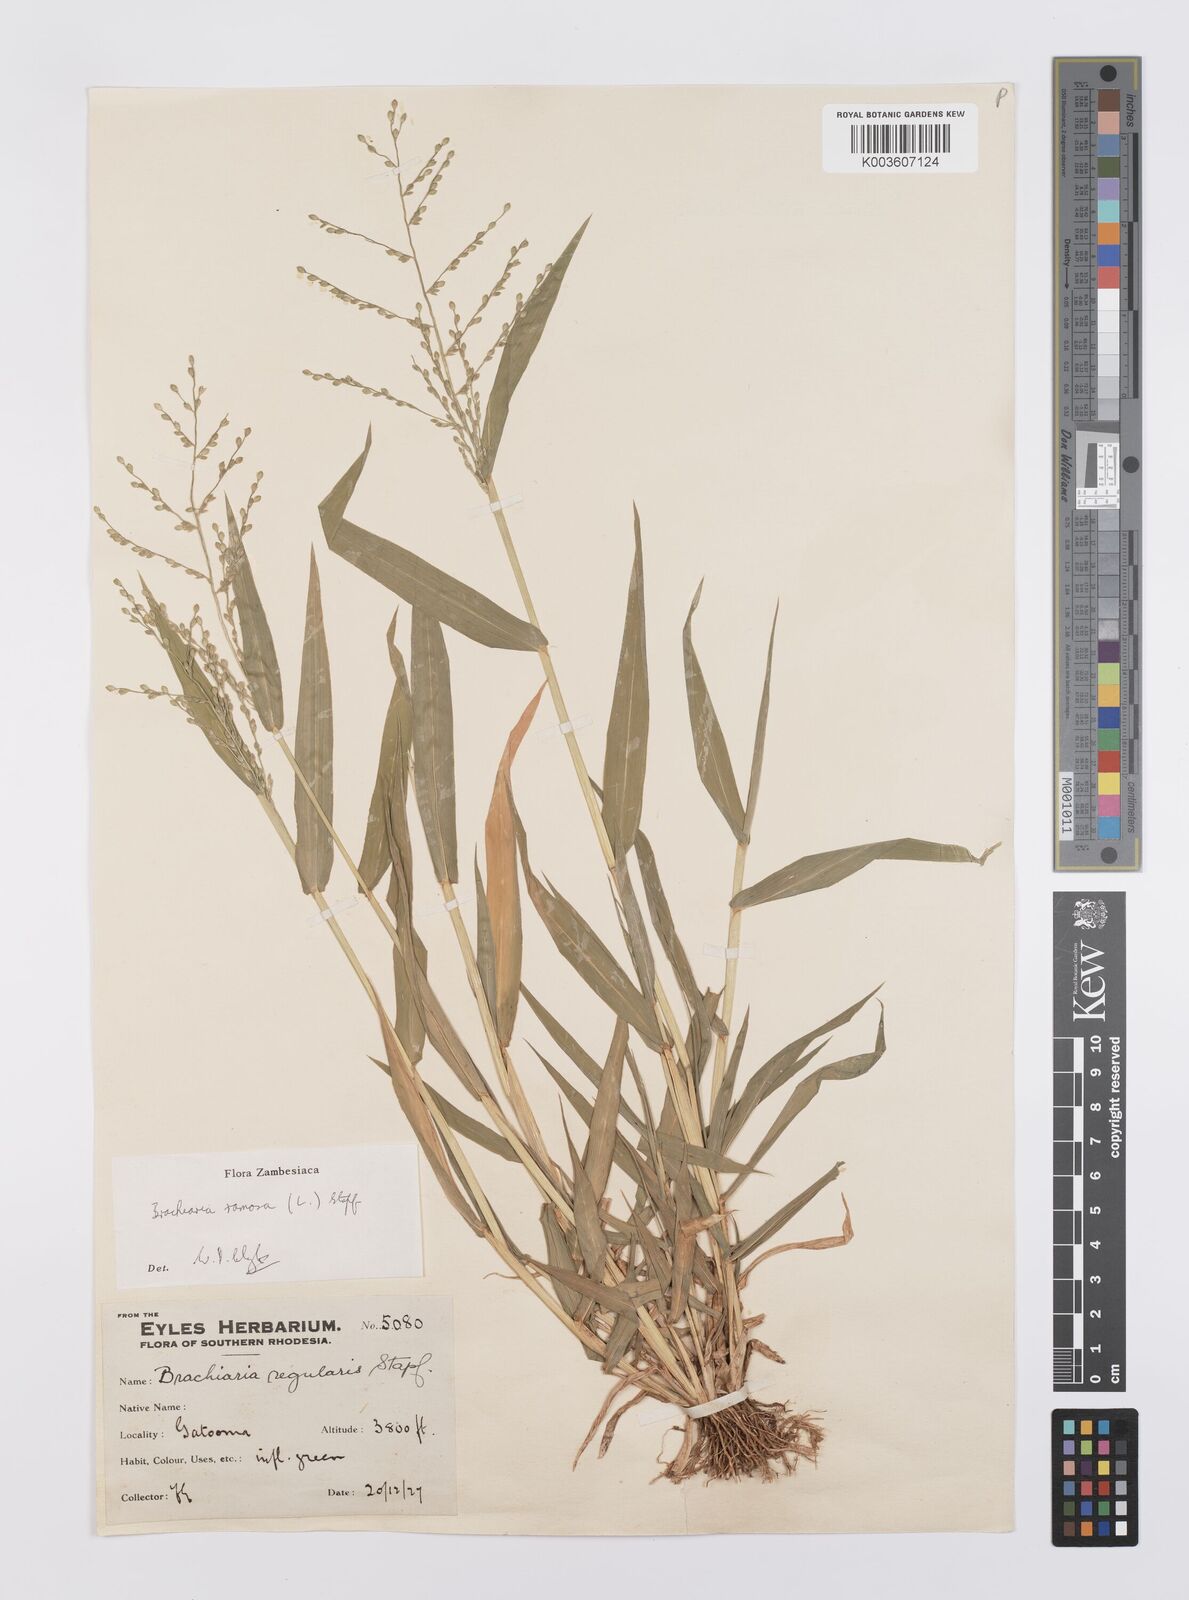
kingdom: Plantae
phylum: Tracheophyta
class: Liliopsida
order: Poales
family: Poaceae
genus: Urochloa
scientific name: Urochloa ramosa
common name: Browntop millet
